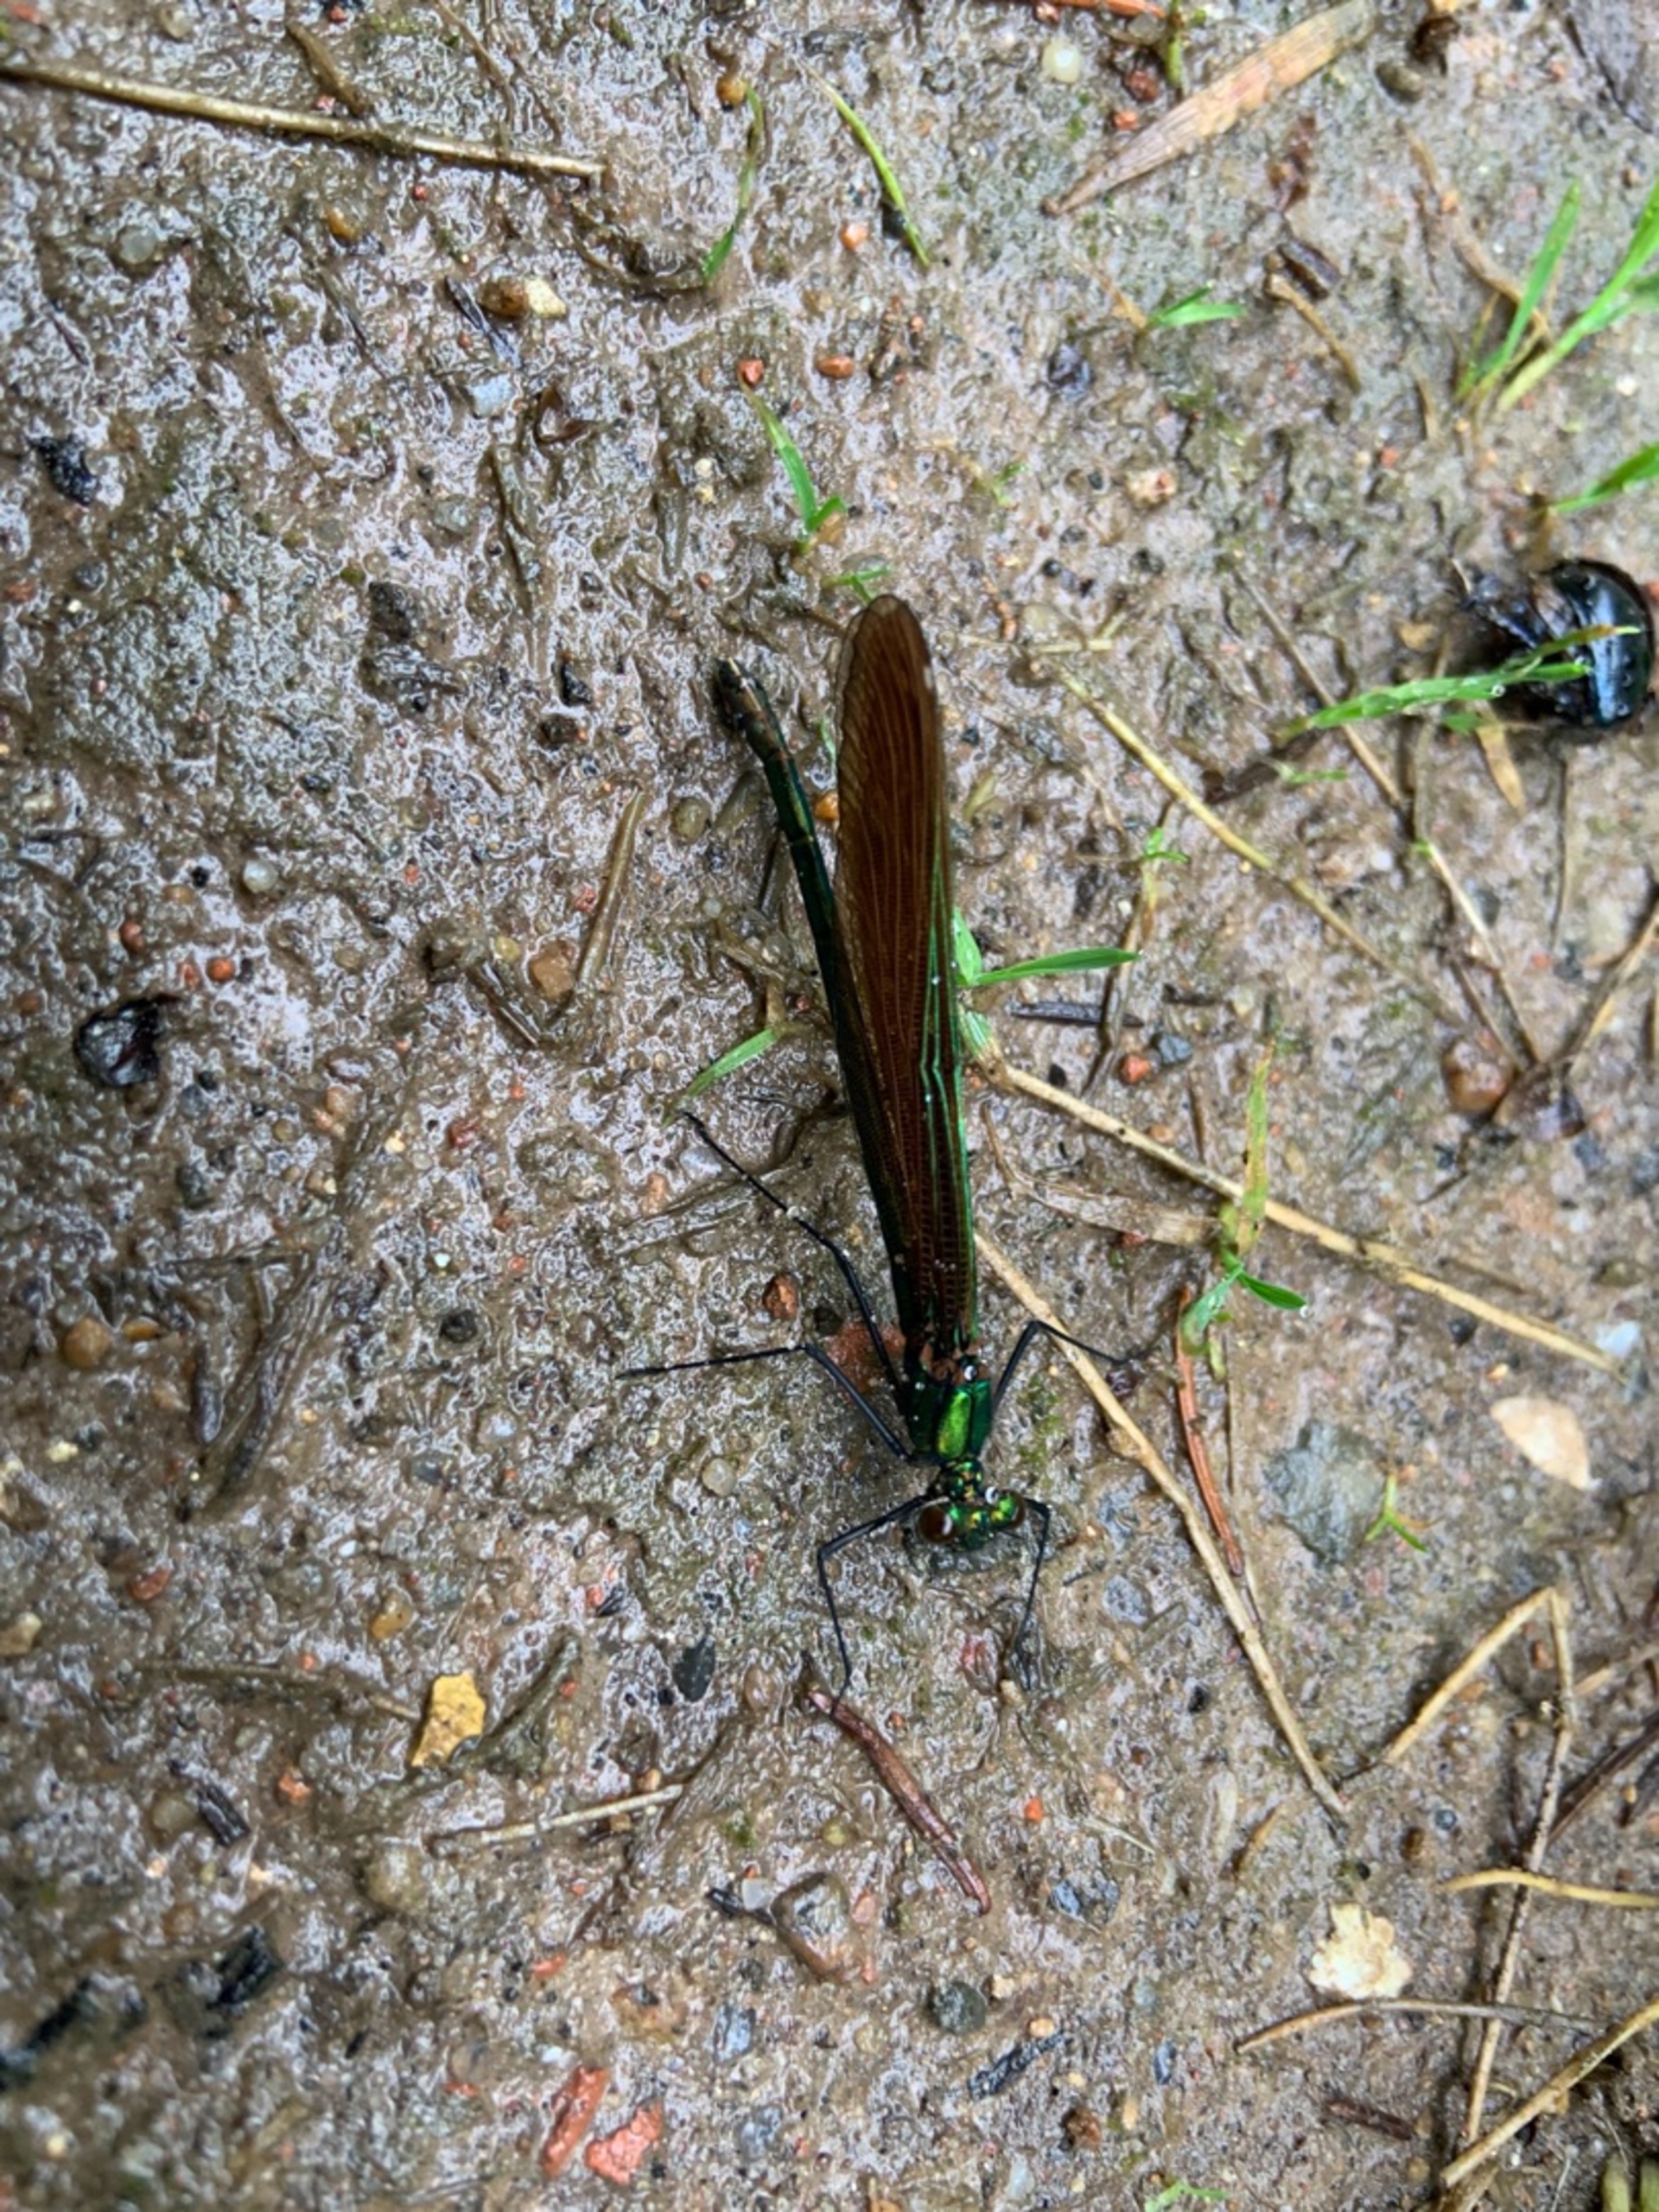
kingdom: Animalia
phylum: Arthropoda
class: Insecta
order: Odonata
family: Calopterygidae
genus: Calopteryx
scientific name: Calopteryx virgo
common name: Blåvinget pragtvandnymfe
